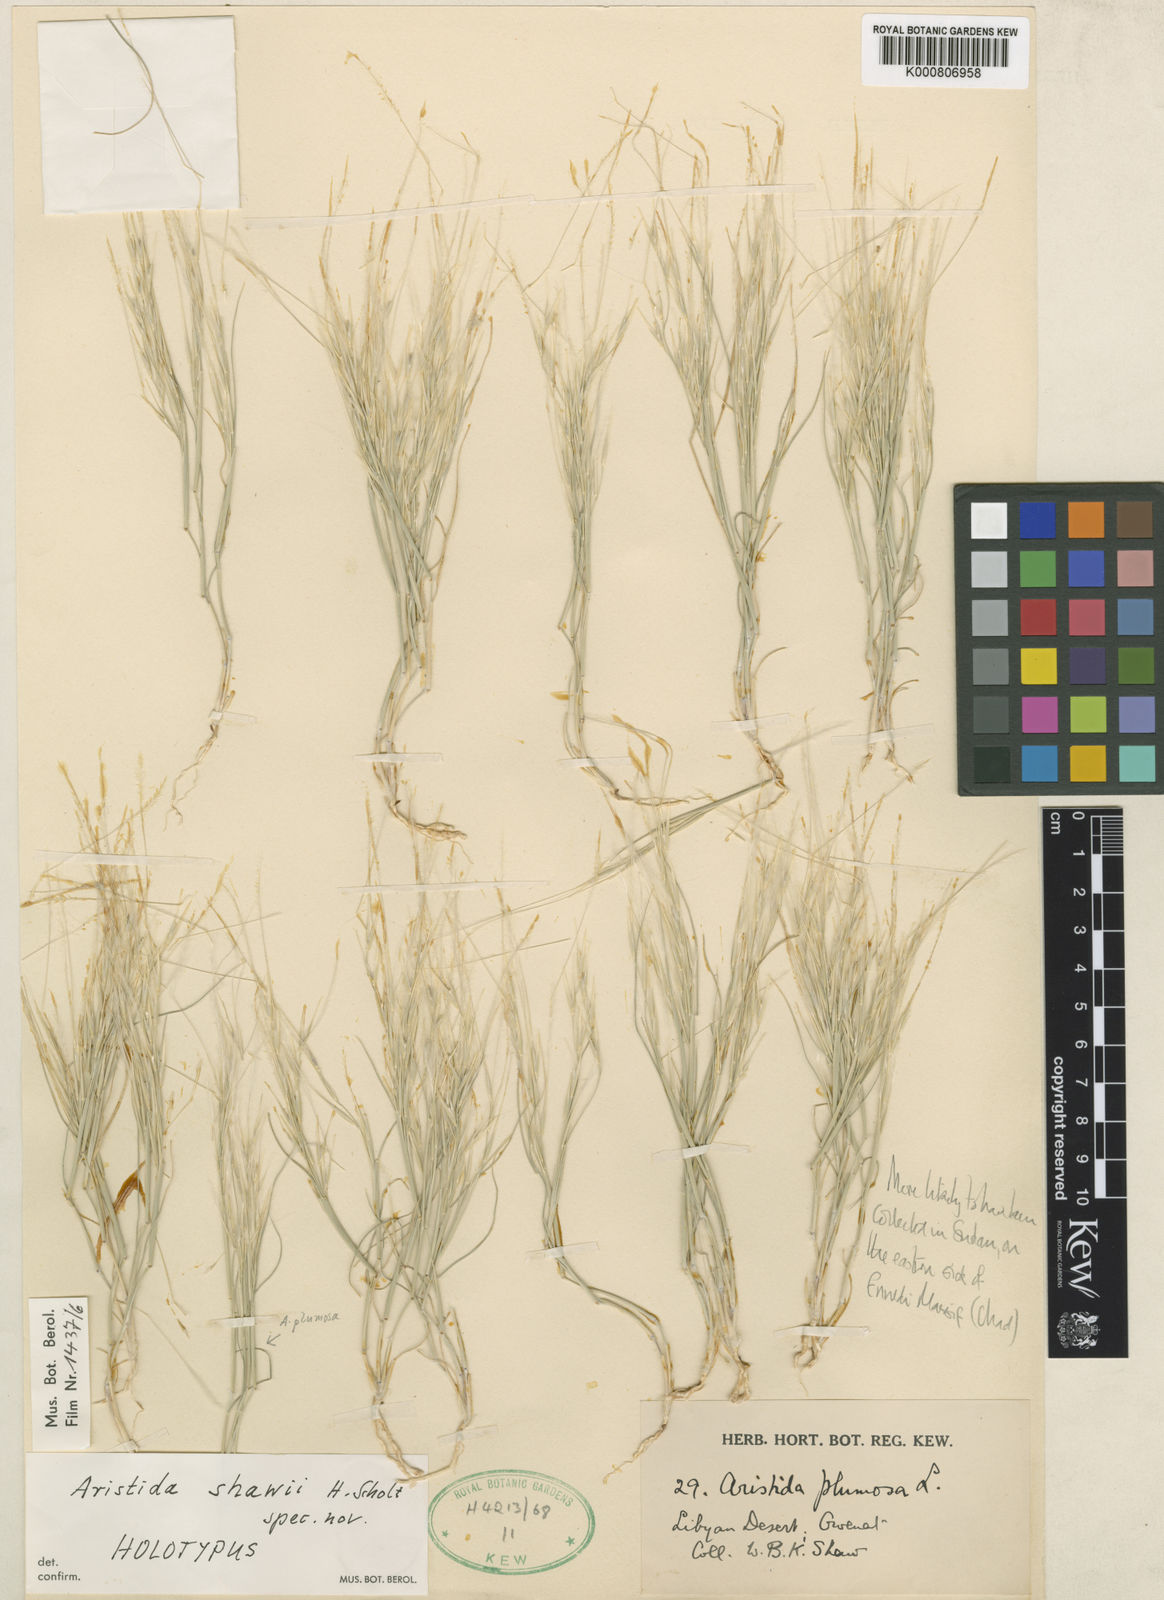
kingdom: Plantae
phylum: Tracheophyta
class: Liliopsida
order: Poales
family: Poaceae
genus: Stipagrostis
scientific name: Stipagrostis shawii
